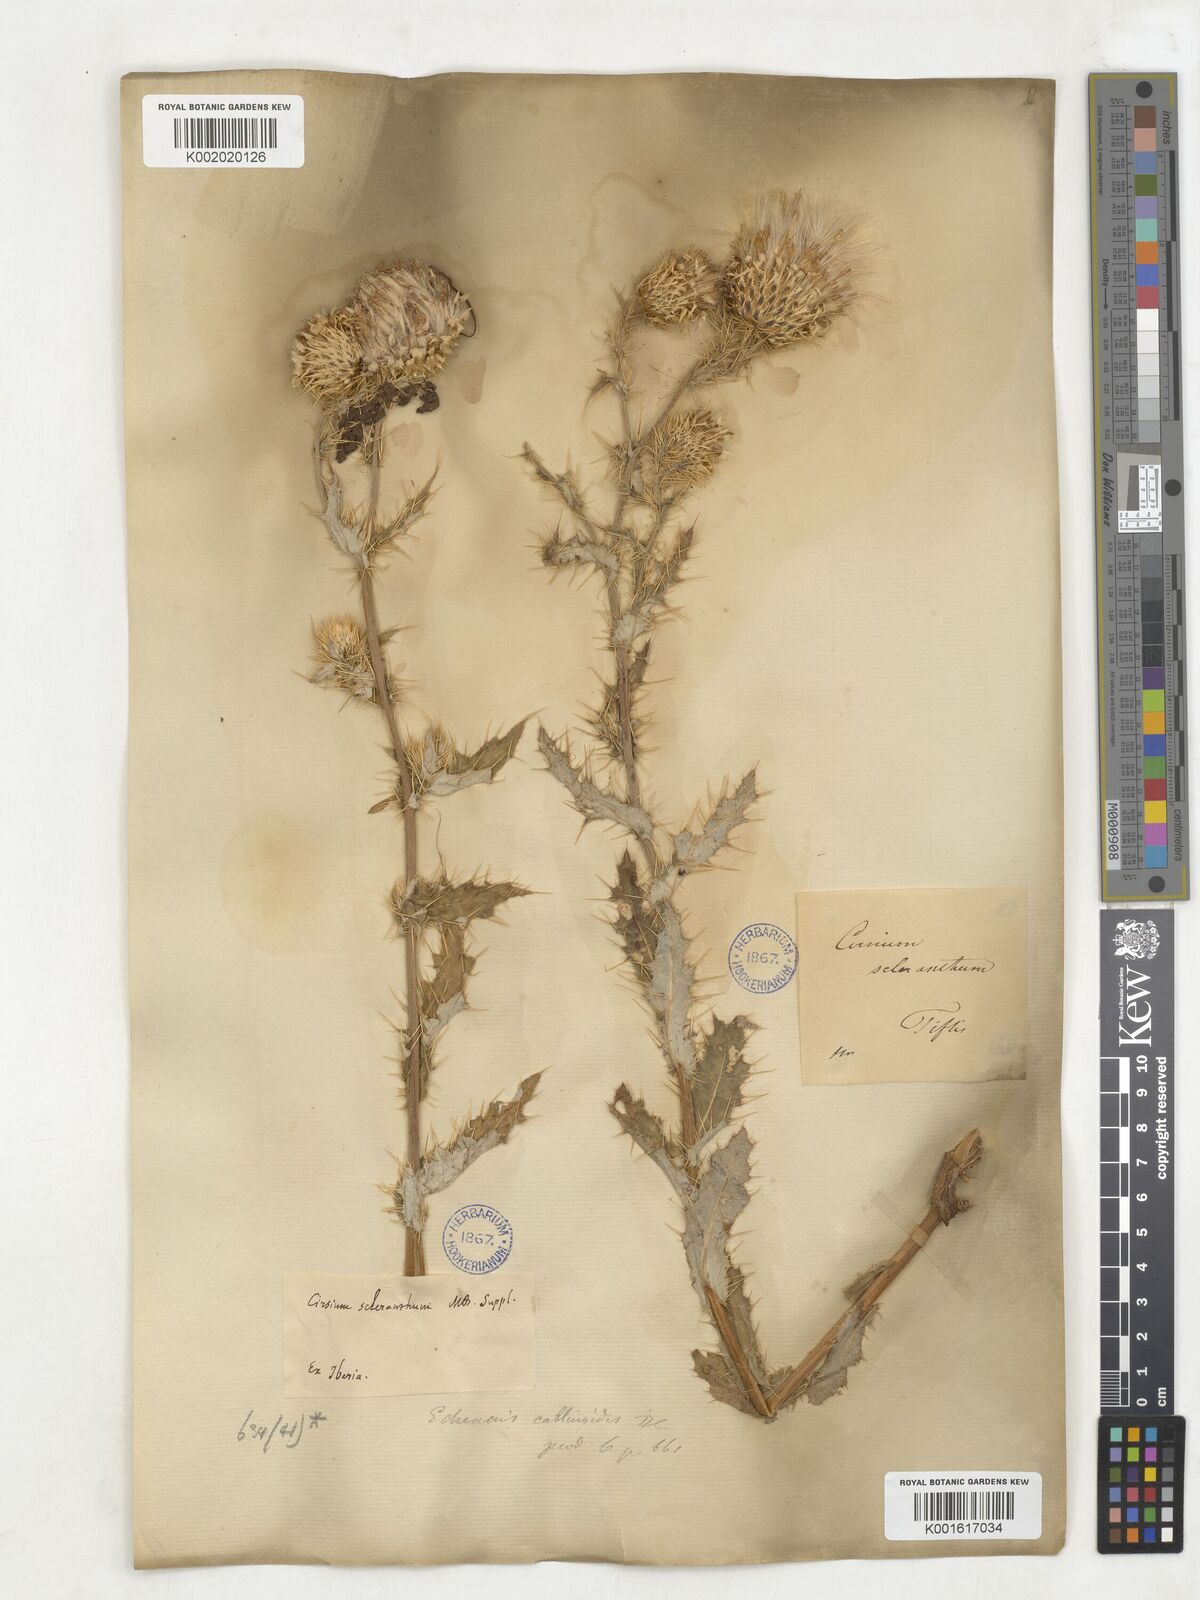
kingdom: Animalia
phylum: Arthropoda
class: Insecta
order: Lepidoptera
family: Riodinidae
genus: Echenais
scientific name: Echenais
